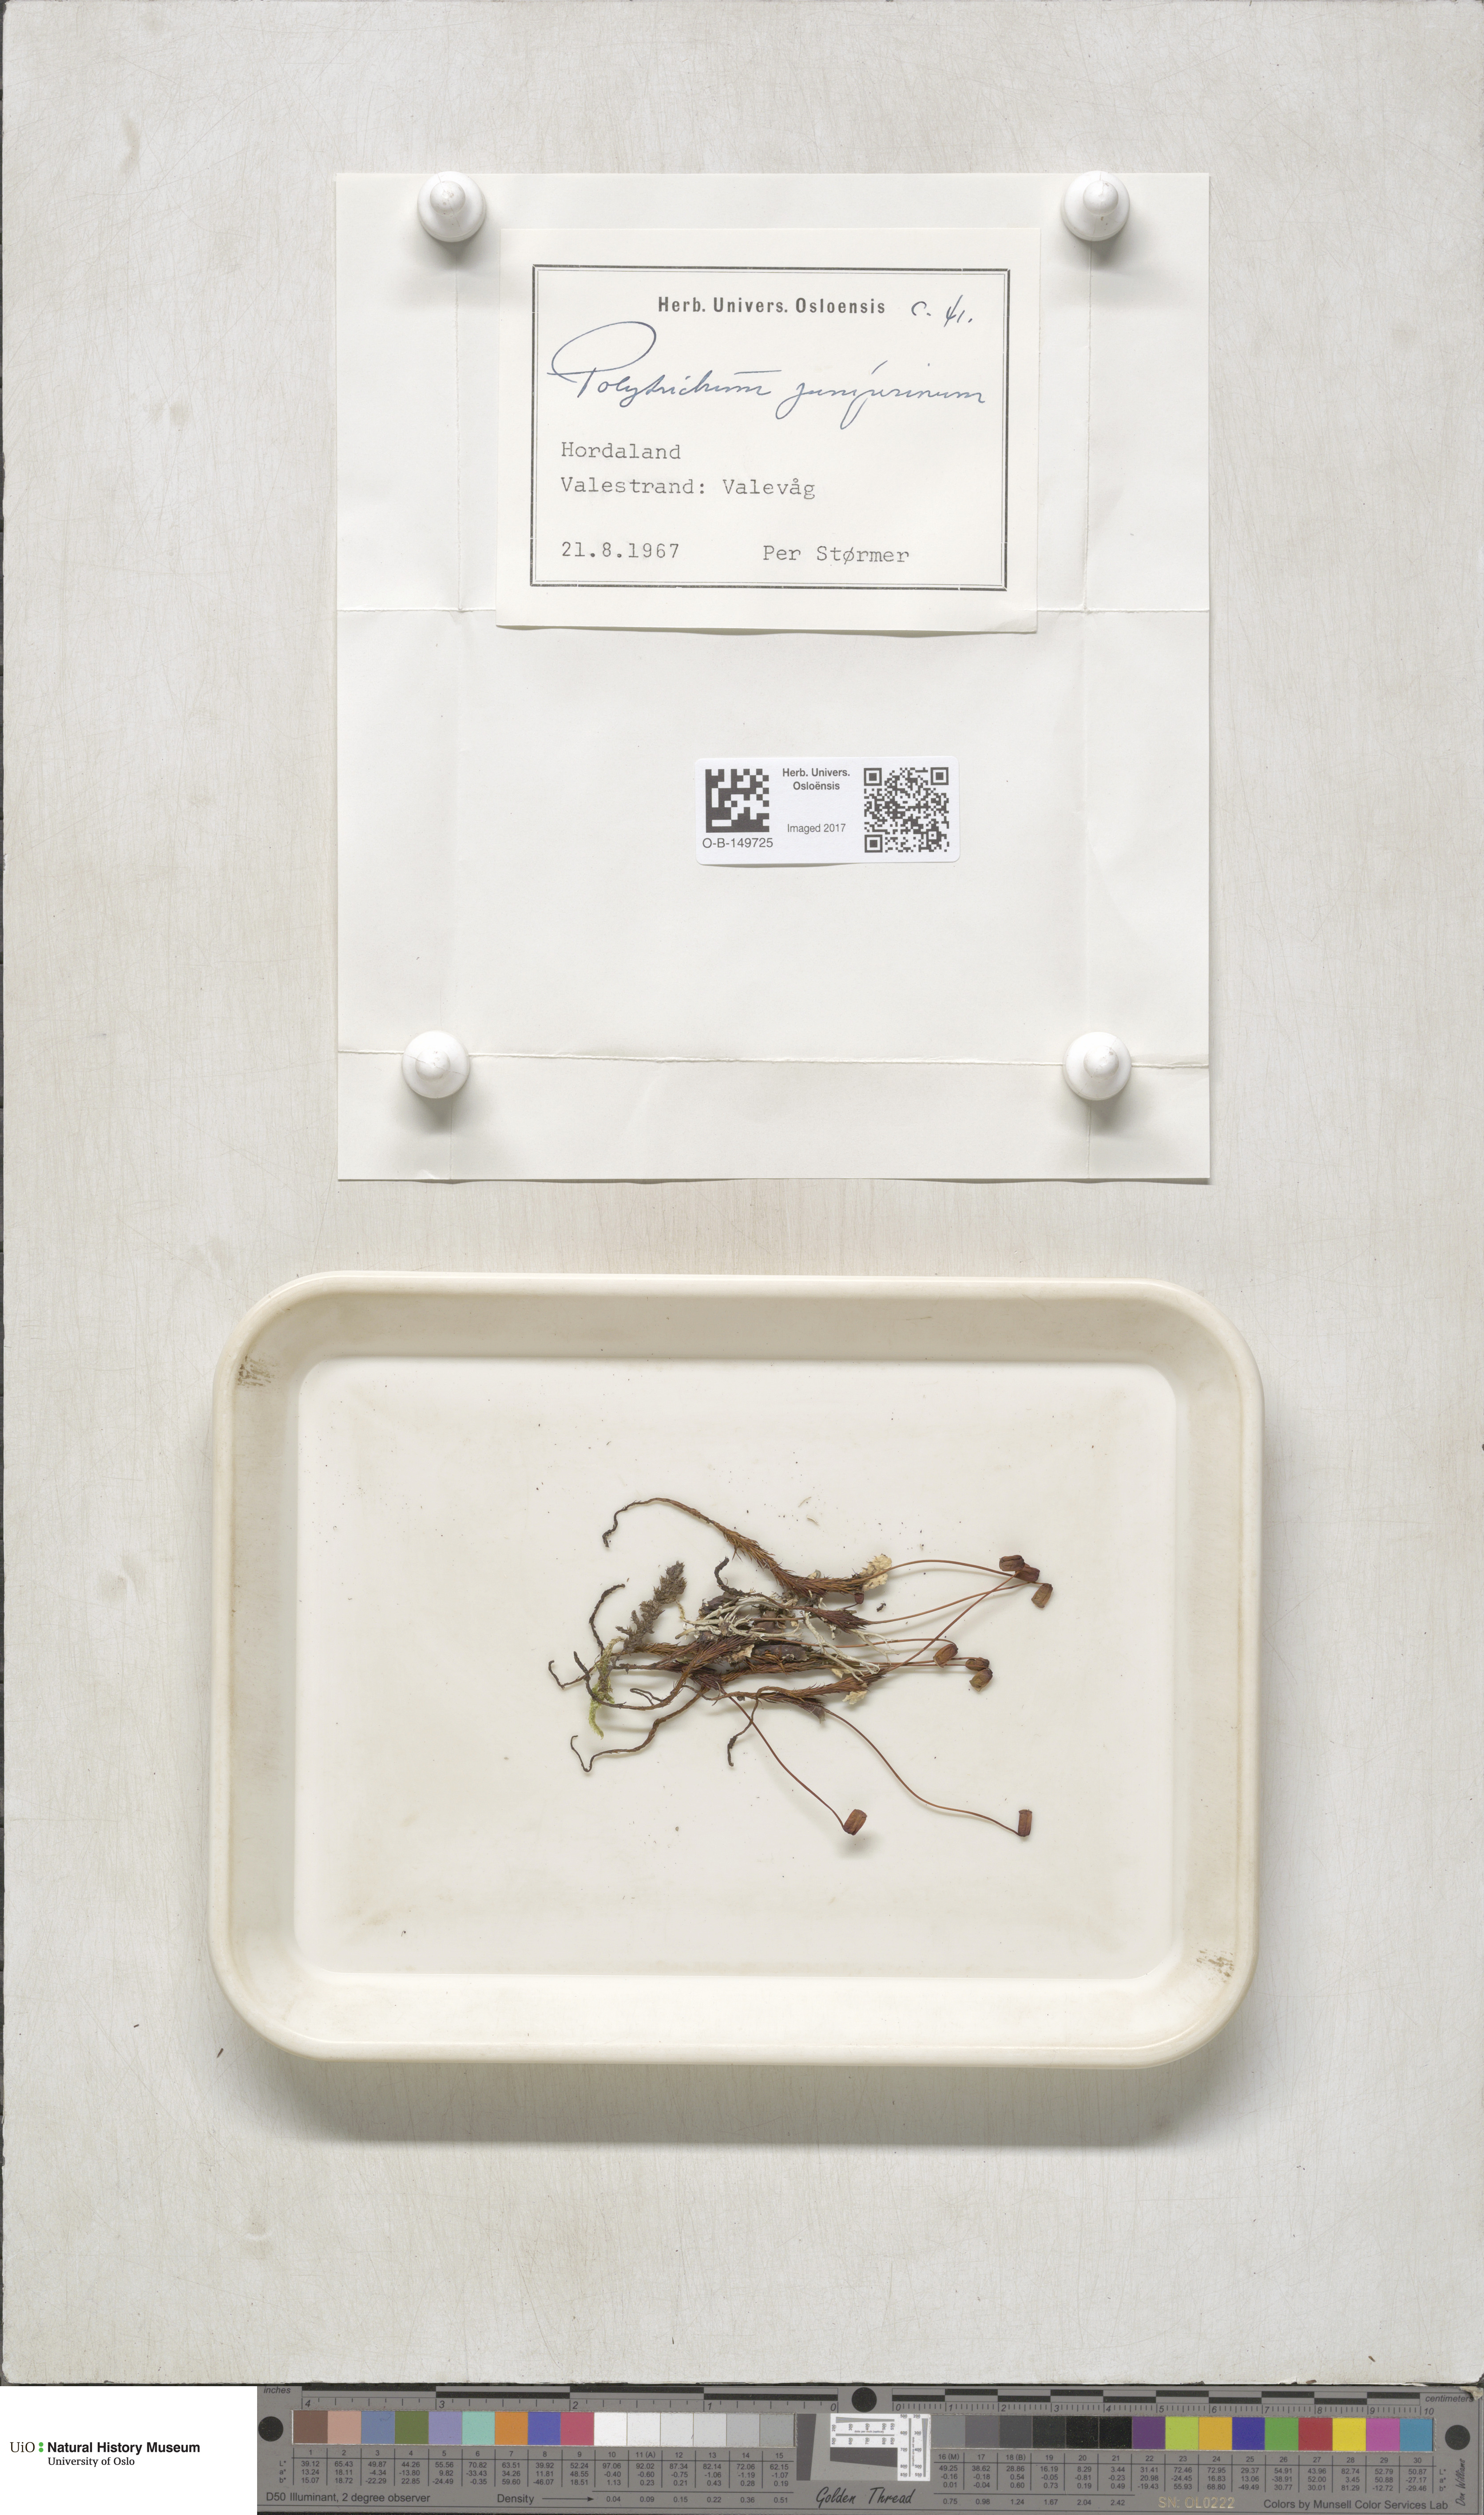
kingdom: Plantae
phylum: Bryophyta
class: Polytrichopsida
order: Polytrichales
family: Polytrichaceae
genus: Polytrichum
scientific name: Polytrichum juniperinum
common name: Juniper haircap moss
